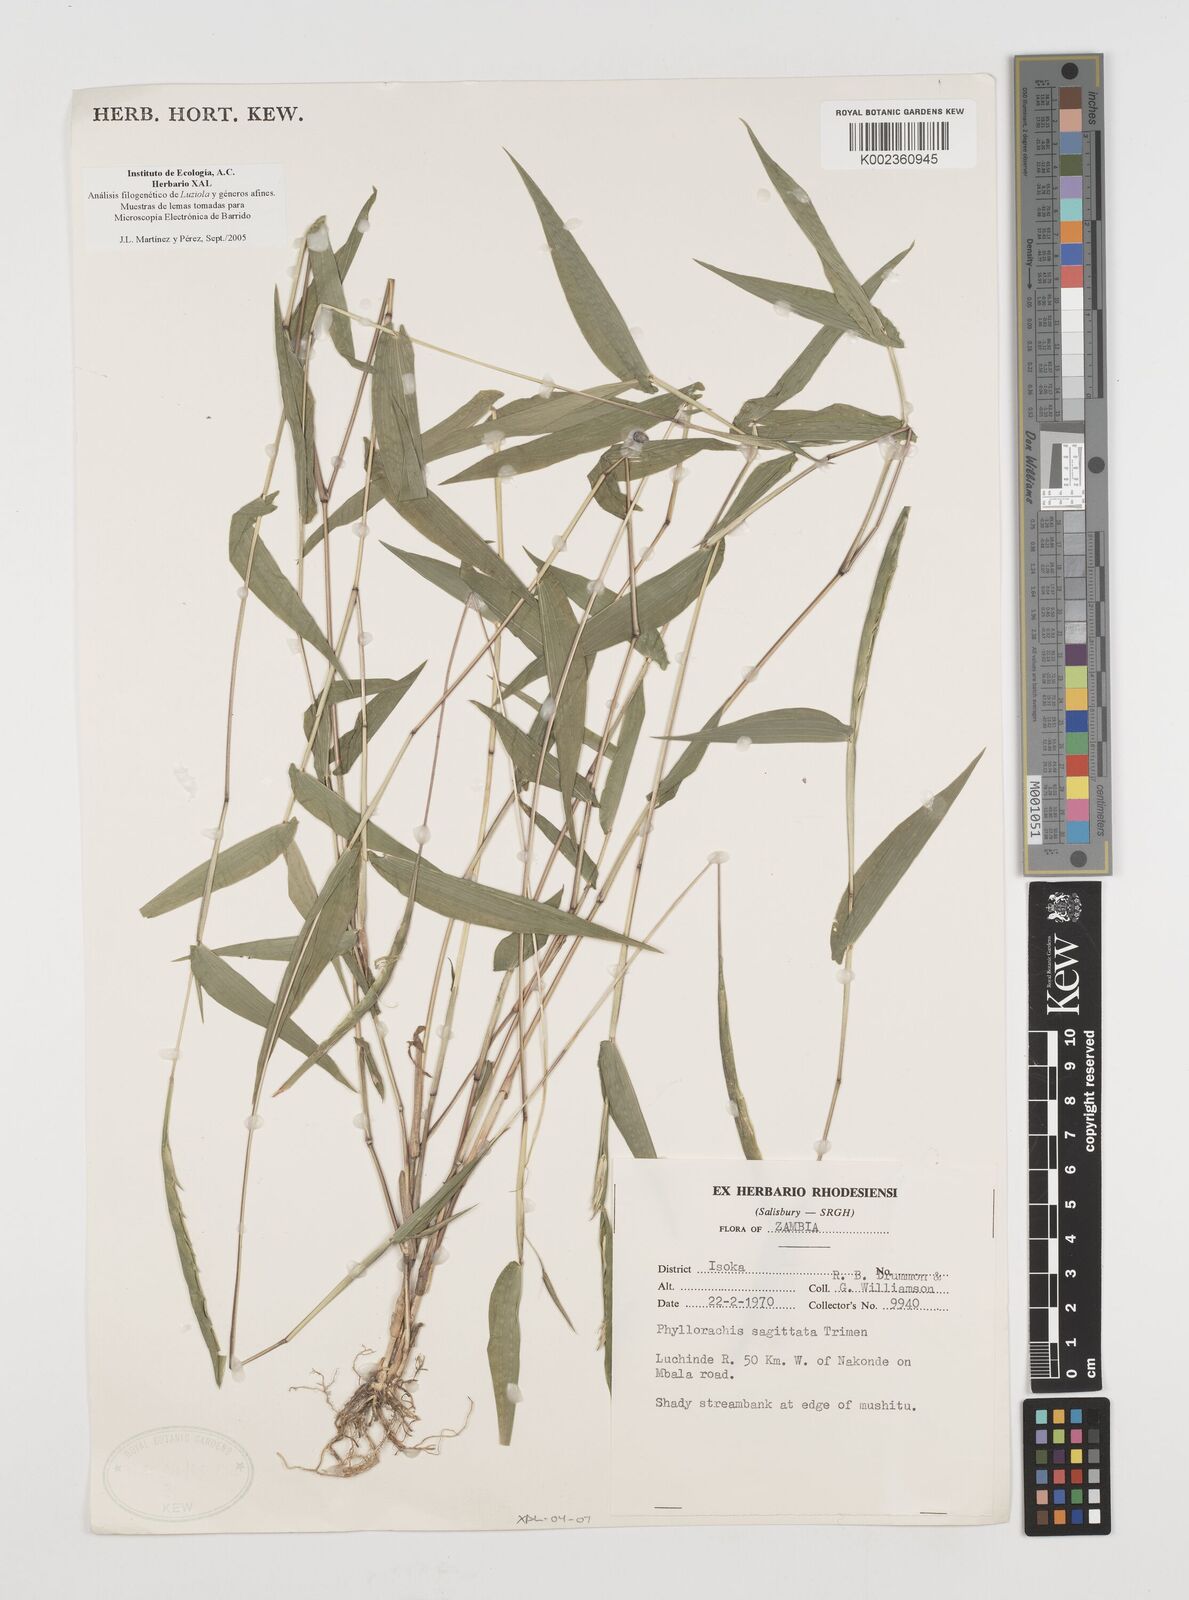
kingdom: Plantae
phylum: Tracheophyta
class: Liliopsida
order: Poales
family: Poaceae
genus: Phyllorachis
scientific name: Phyllorachis sagittata
